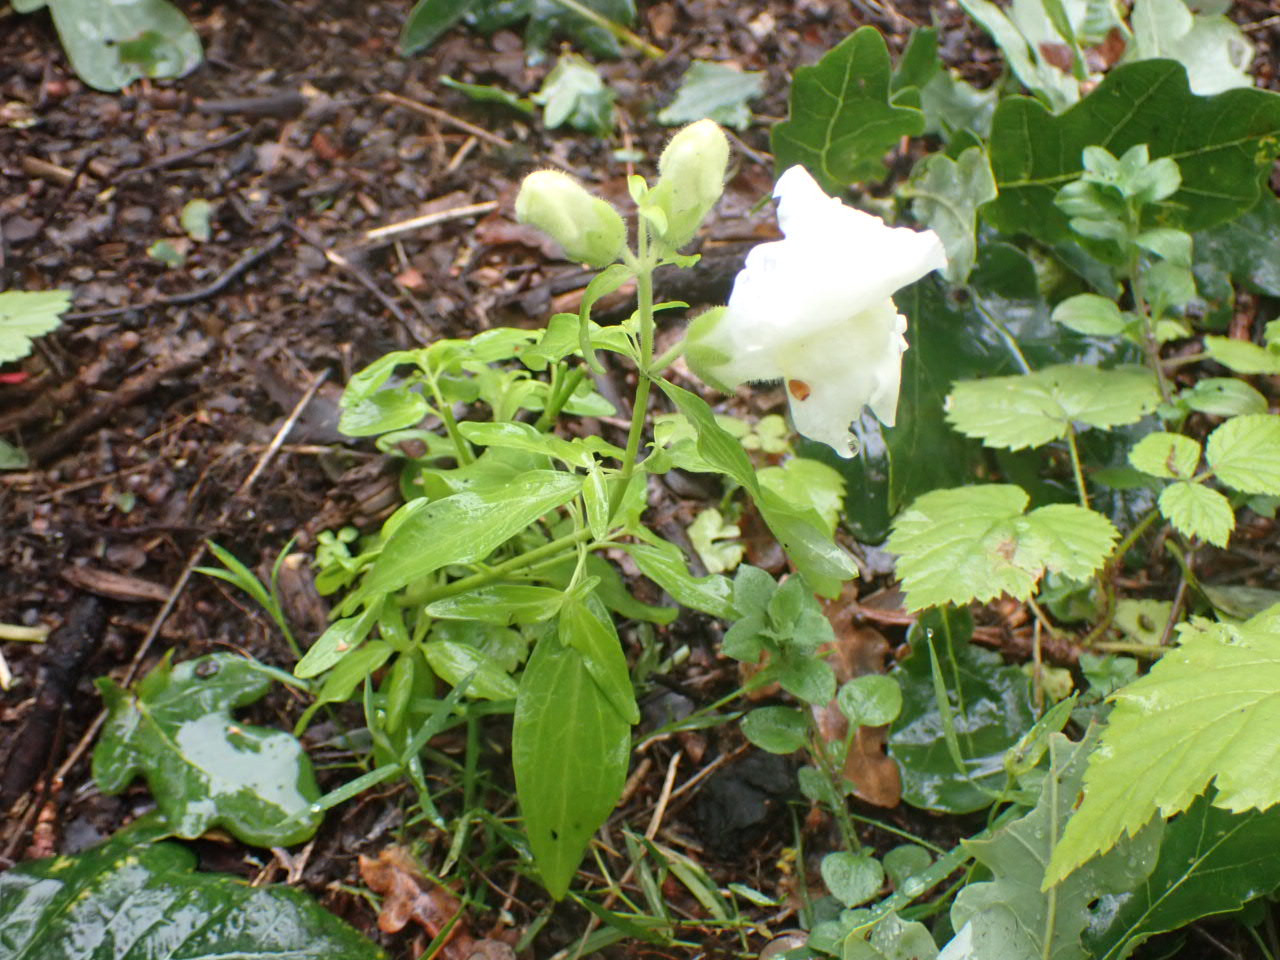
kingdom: Plantae
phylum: Tracheophyta
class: Magnoliopsida
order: Lamiales
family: Plantaginaceae
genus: Antirrhinum
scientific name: Antirrhinum majus
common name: Have-løvemund
